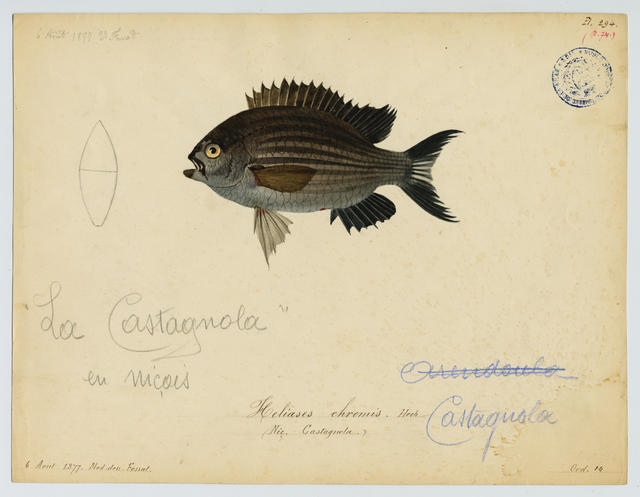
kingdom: Animalia
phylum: Chordata
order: Perciformes
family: Pomacentridae
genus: Chromis
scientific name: Chromis chromis
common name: Damselfish
